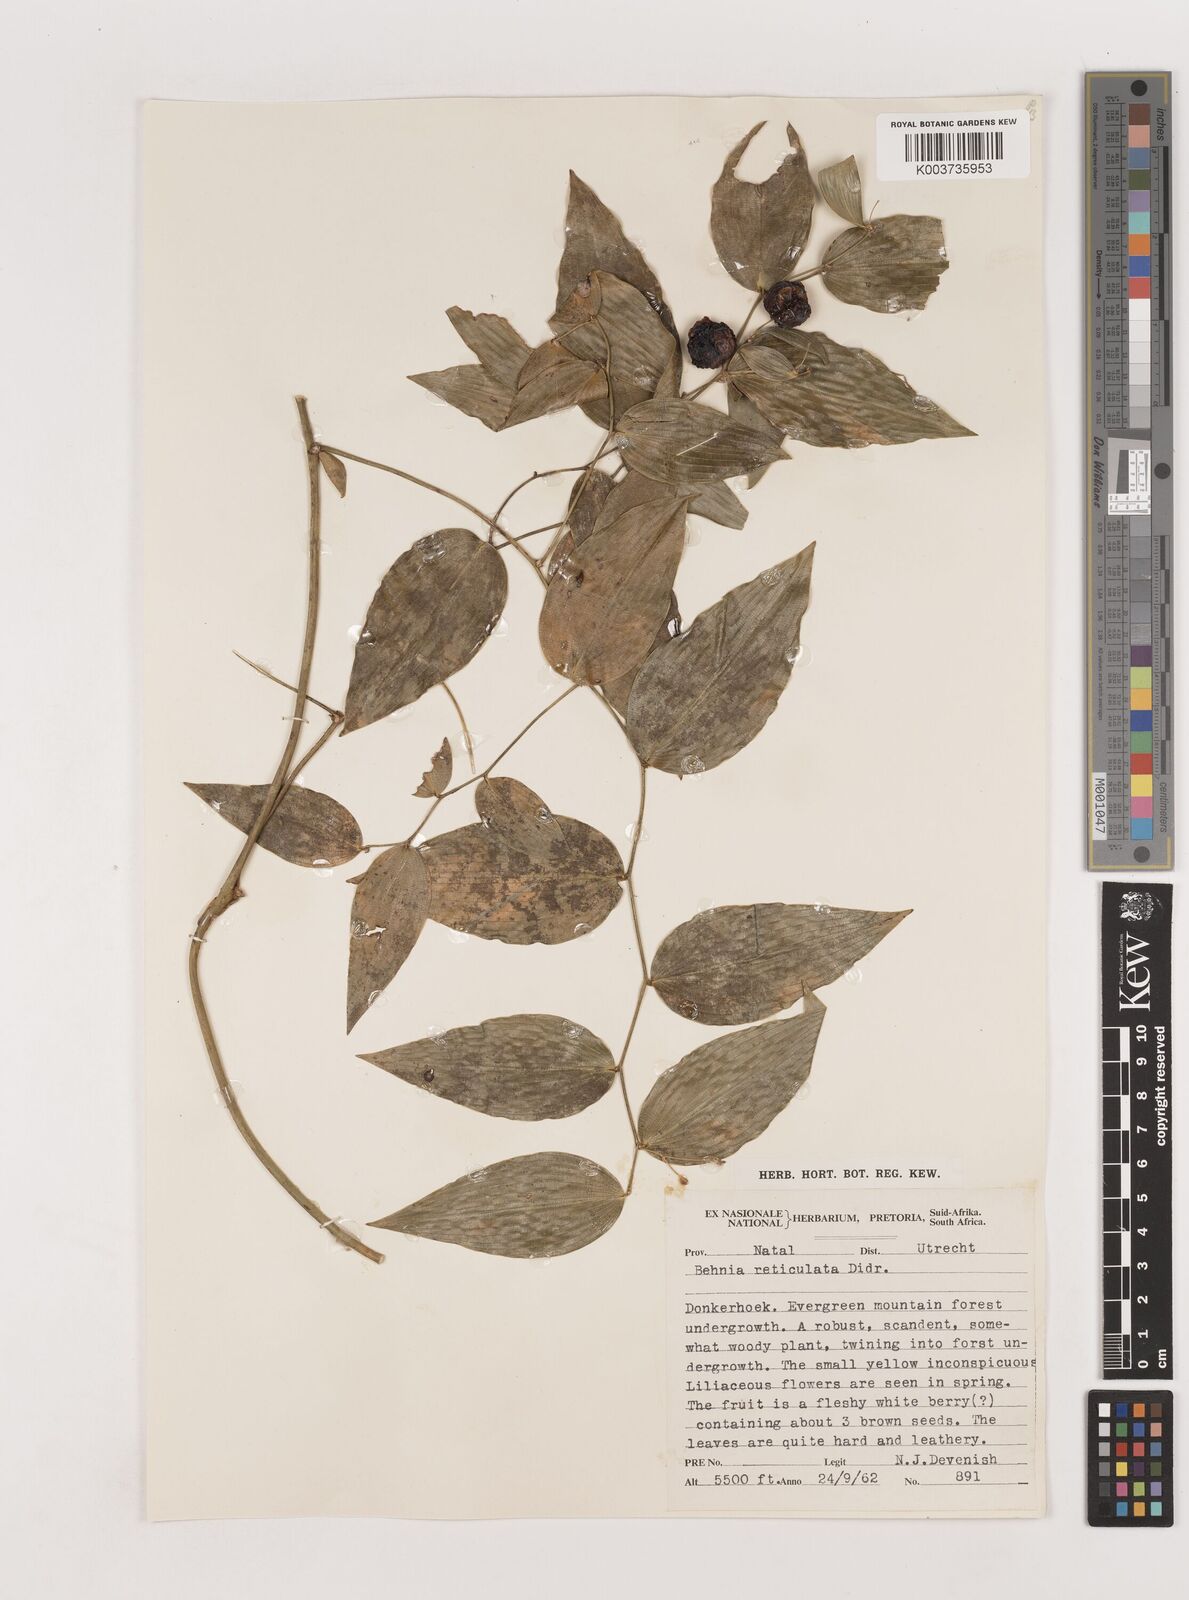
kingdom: Plantae
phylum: Tracheophyta
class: Liliopsida
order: Asparagales
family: Asparagaceae
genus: Behnia
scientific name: Behnia reticulata
